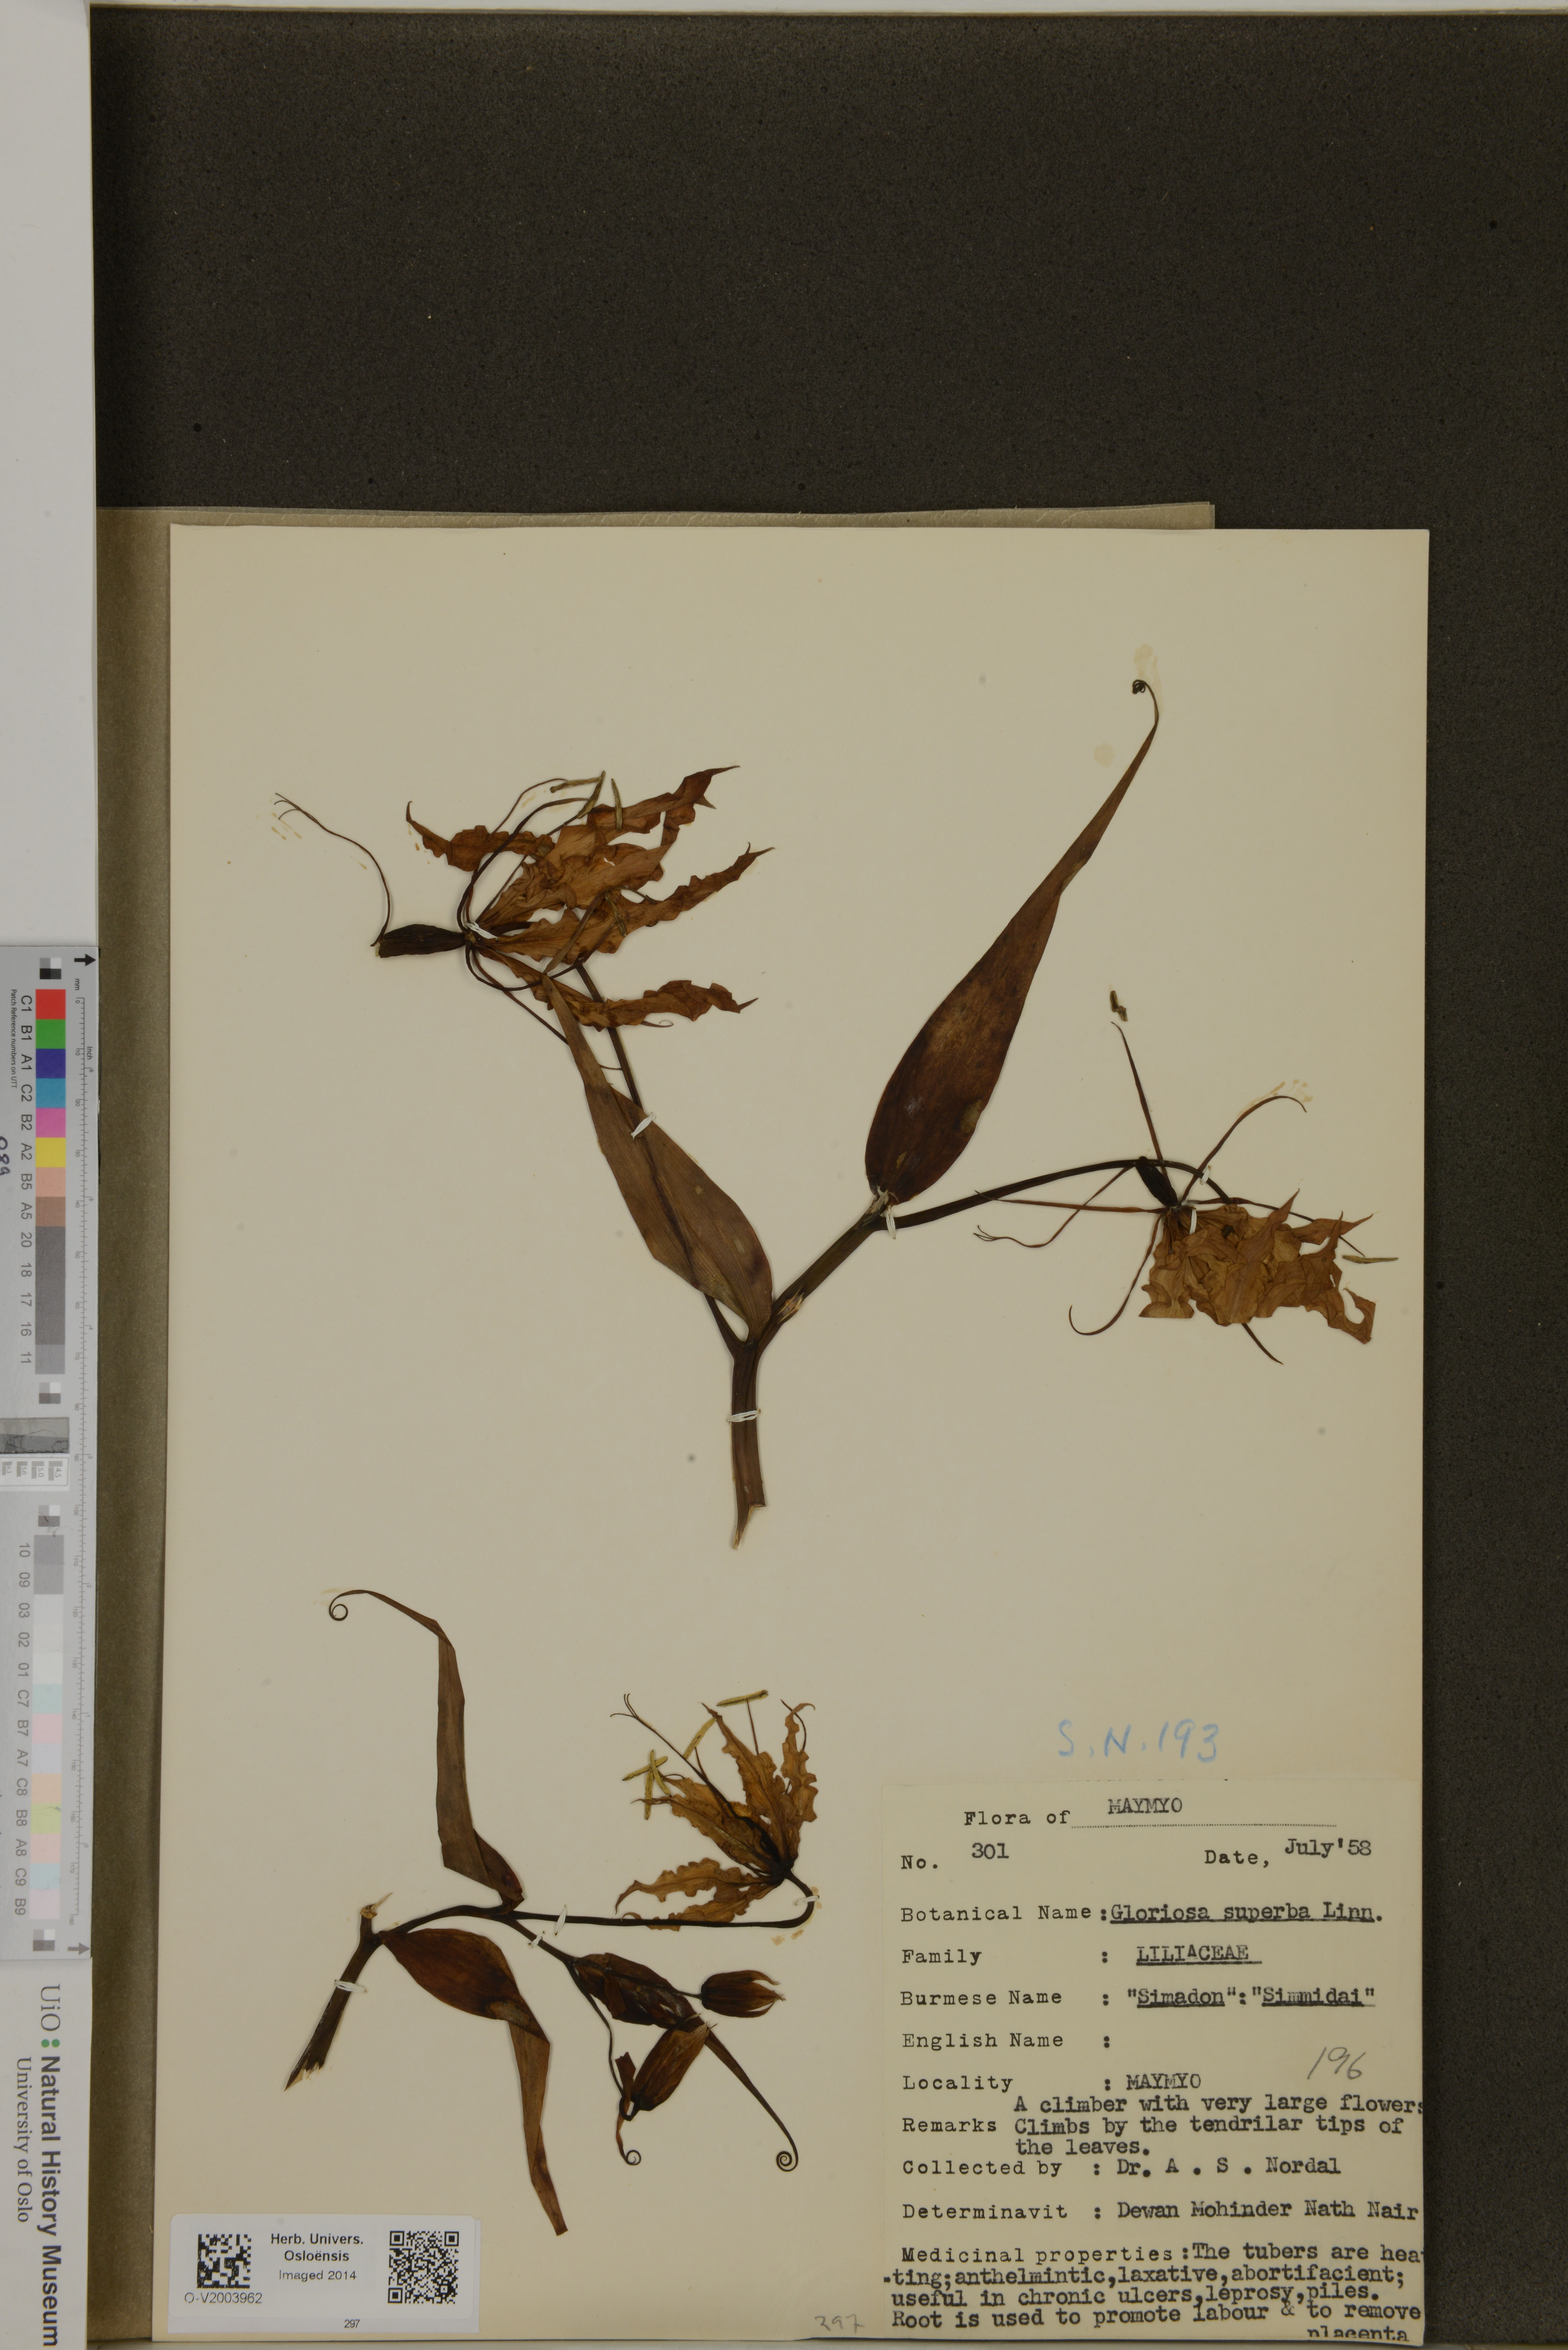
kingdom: Plantae
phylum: Tracheophyta
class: Liliopsida
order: Liliales
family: Colchicaceae
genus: Gloriosa
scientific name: Gloriosa superba
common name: Flame lily
